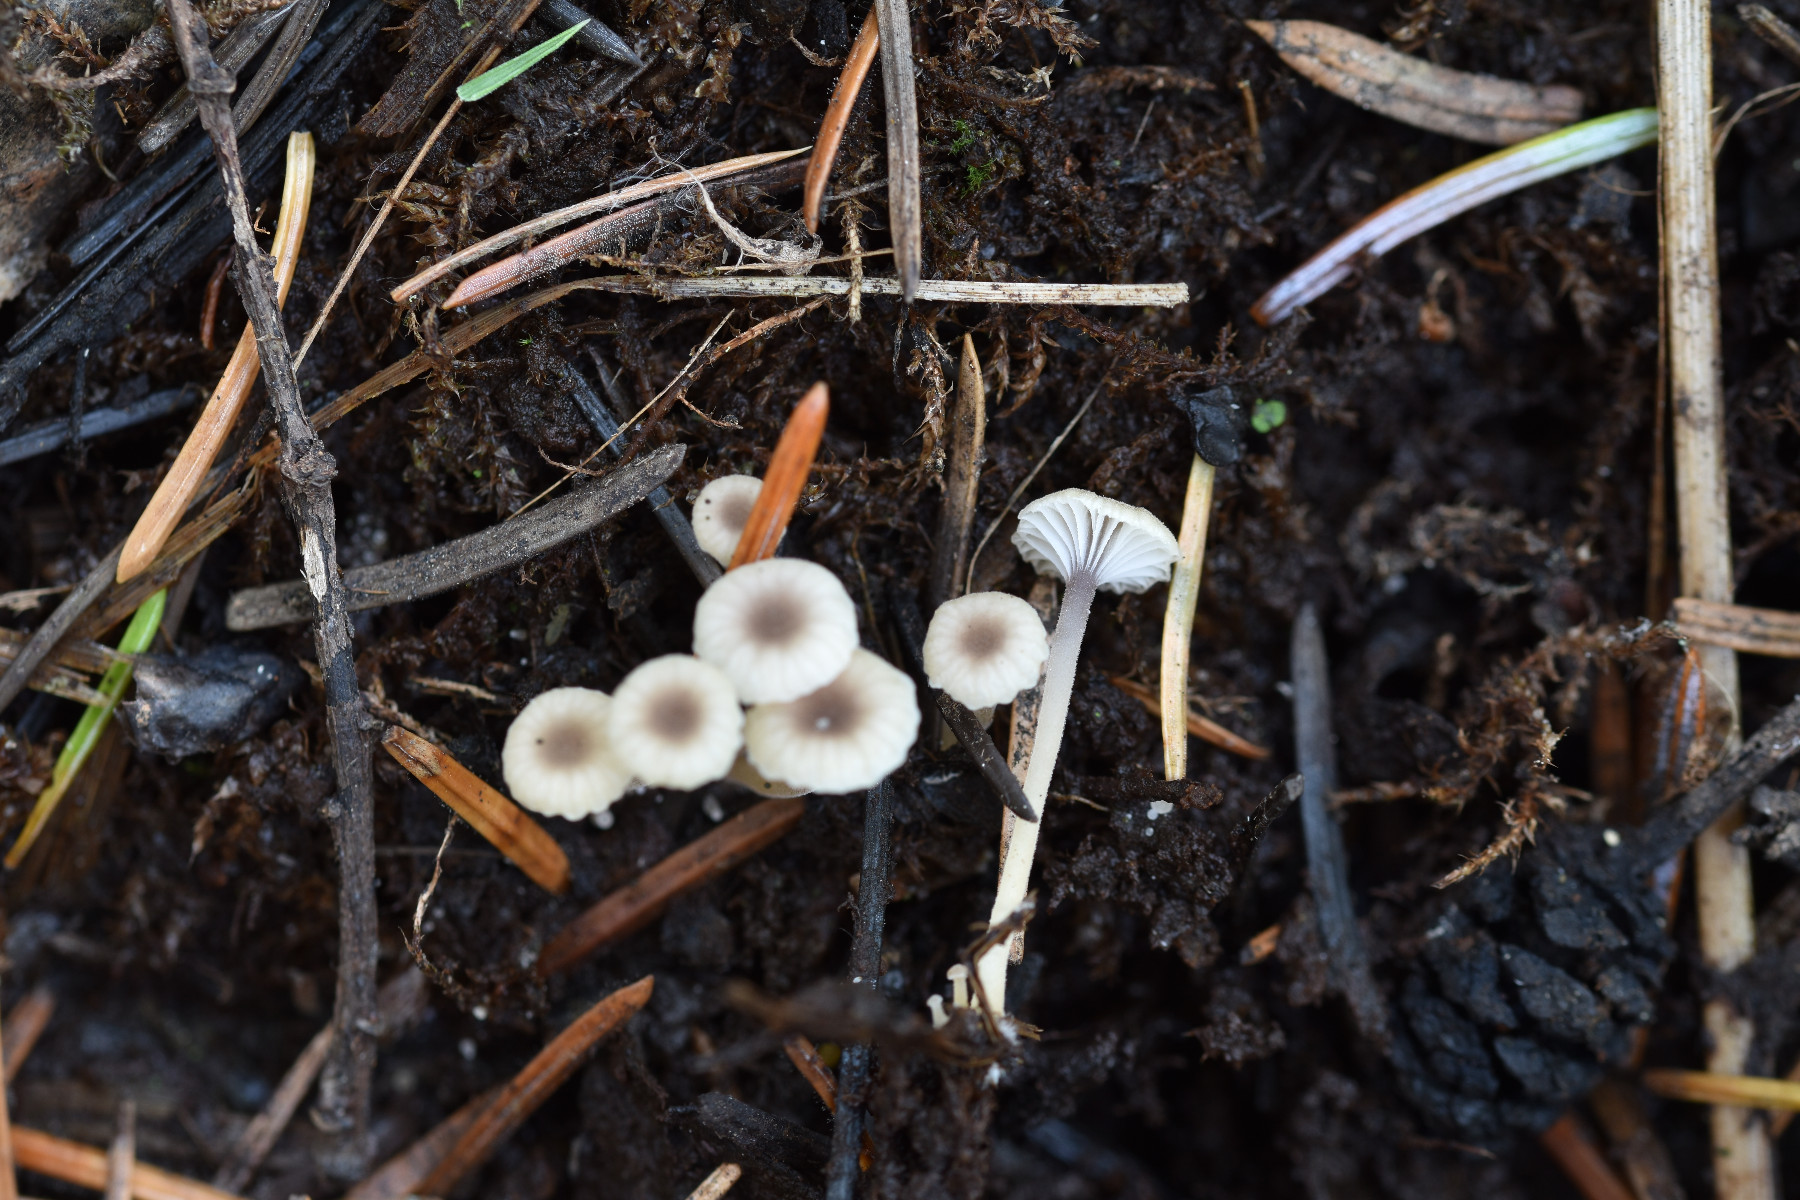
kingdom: Fungi
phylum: Basidiomycota
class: Agaricomycetes
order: Hymenochaetales
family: Rickenellaceae
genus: Rickenella
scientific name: Rickenella swartzii
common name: finstokket mosnavlehat
